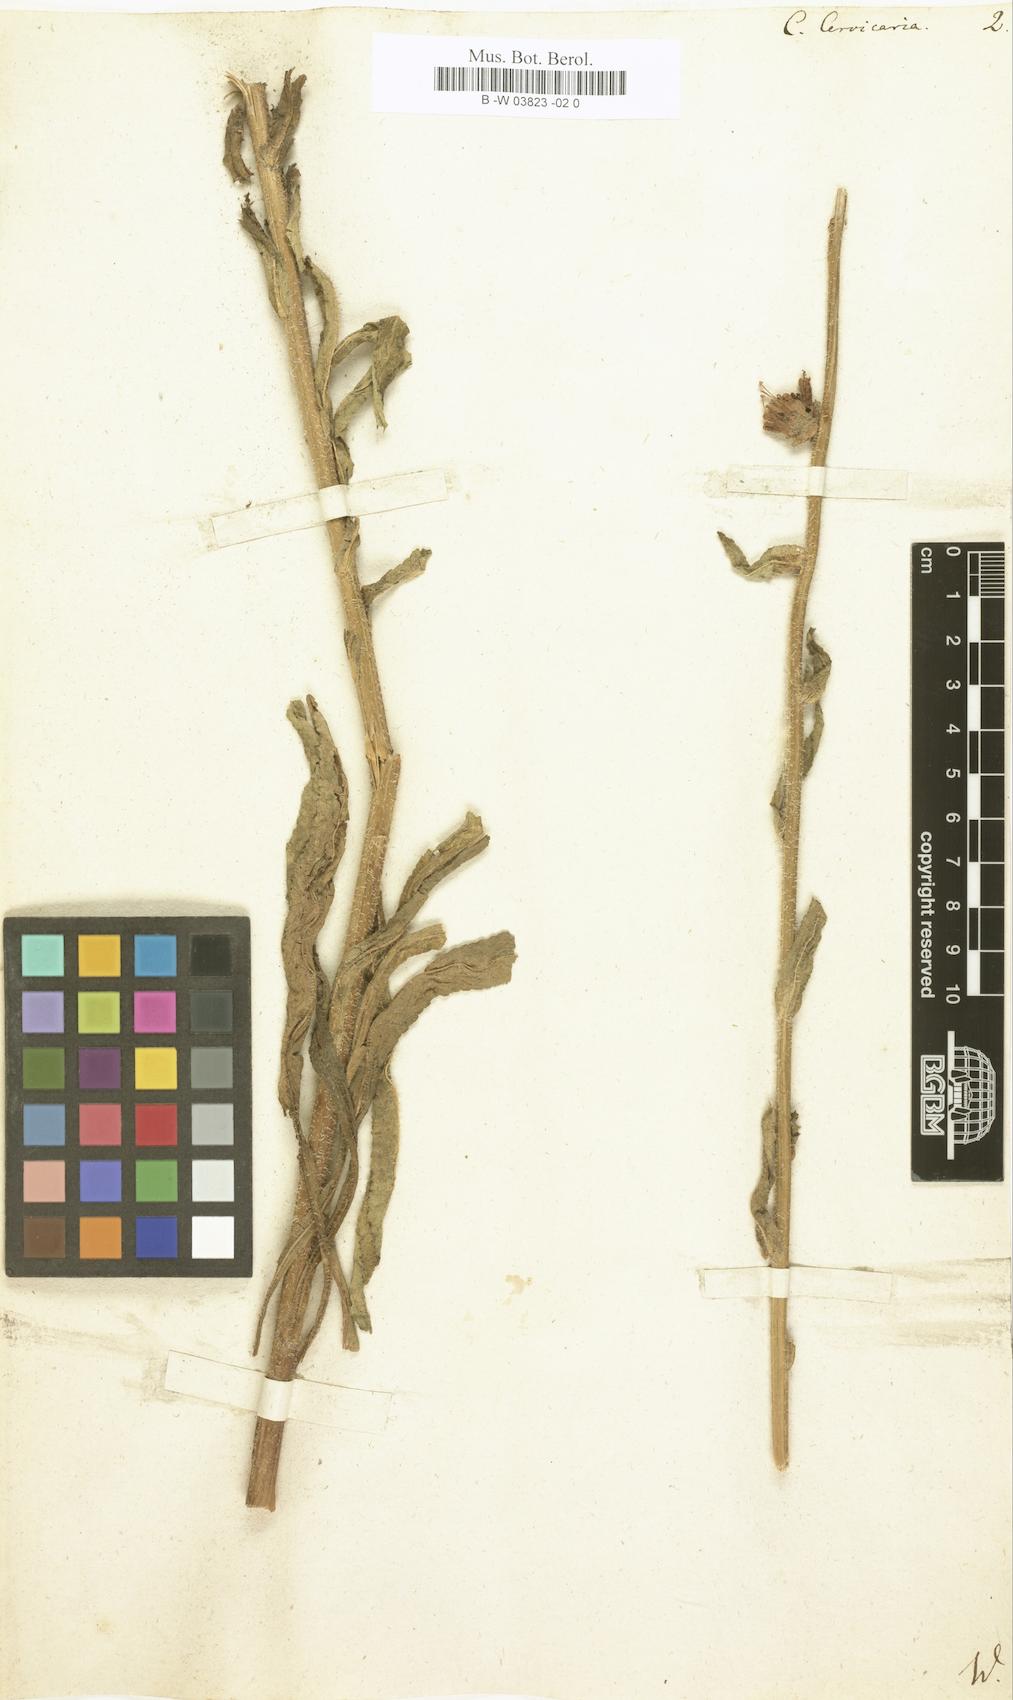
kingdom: Plantae
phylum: Tracheophyta
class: Magnoliopsida
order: Asterales
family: Campanulaceae
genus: Campanula
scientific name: Campanula cervicaria
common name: Bristly bellflower
